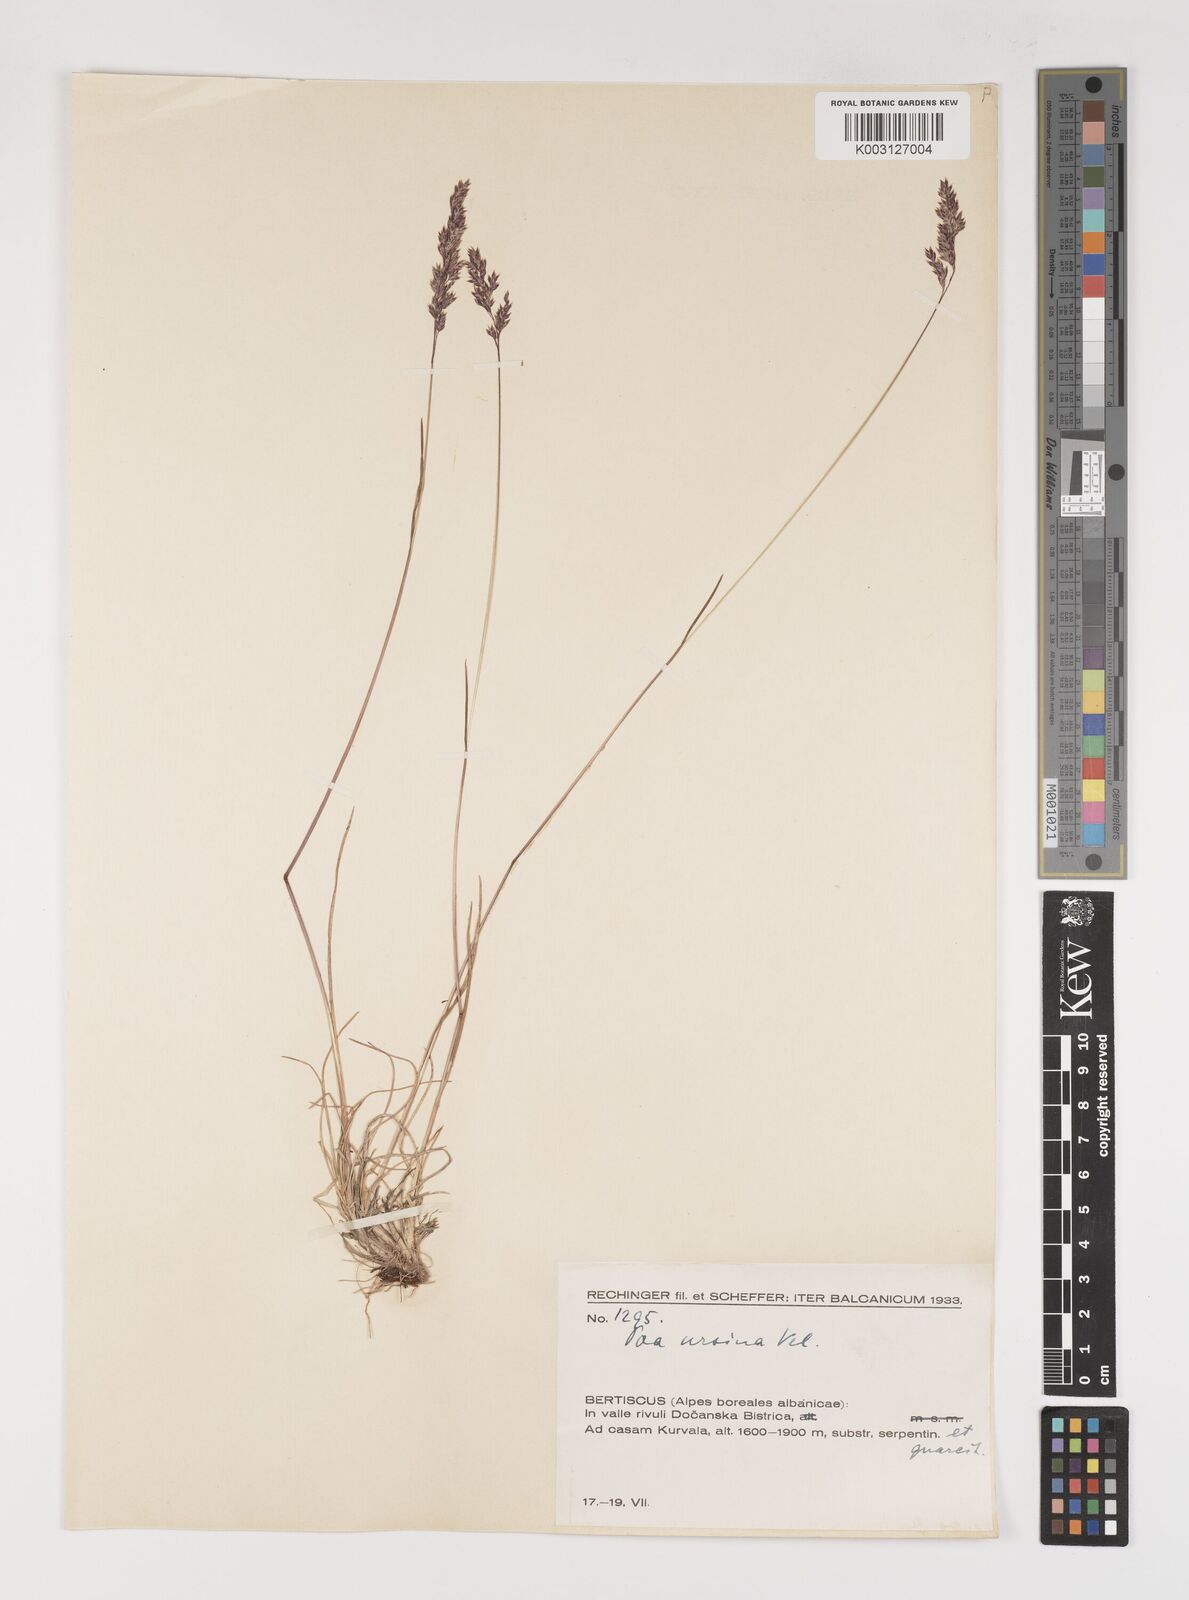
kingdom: Plantae
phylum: Tracheophyta
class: Liliopsida
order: Poales
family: Poaceae
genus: Poa
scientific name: Poa ursina
